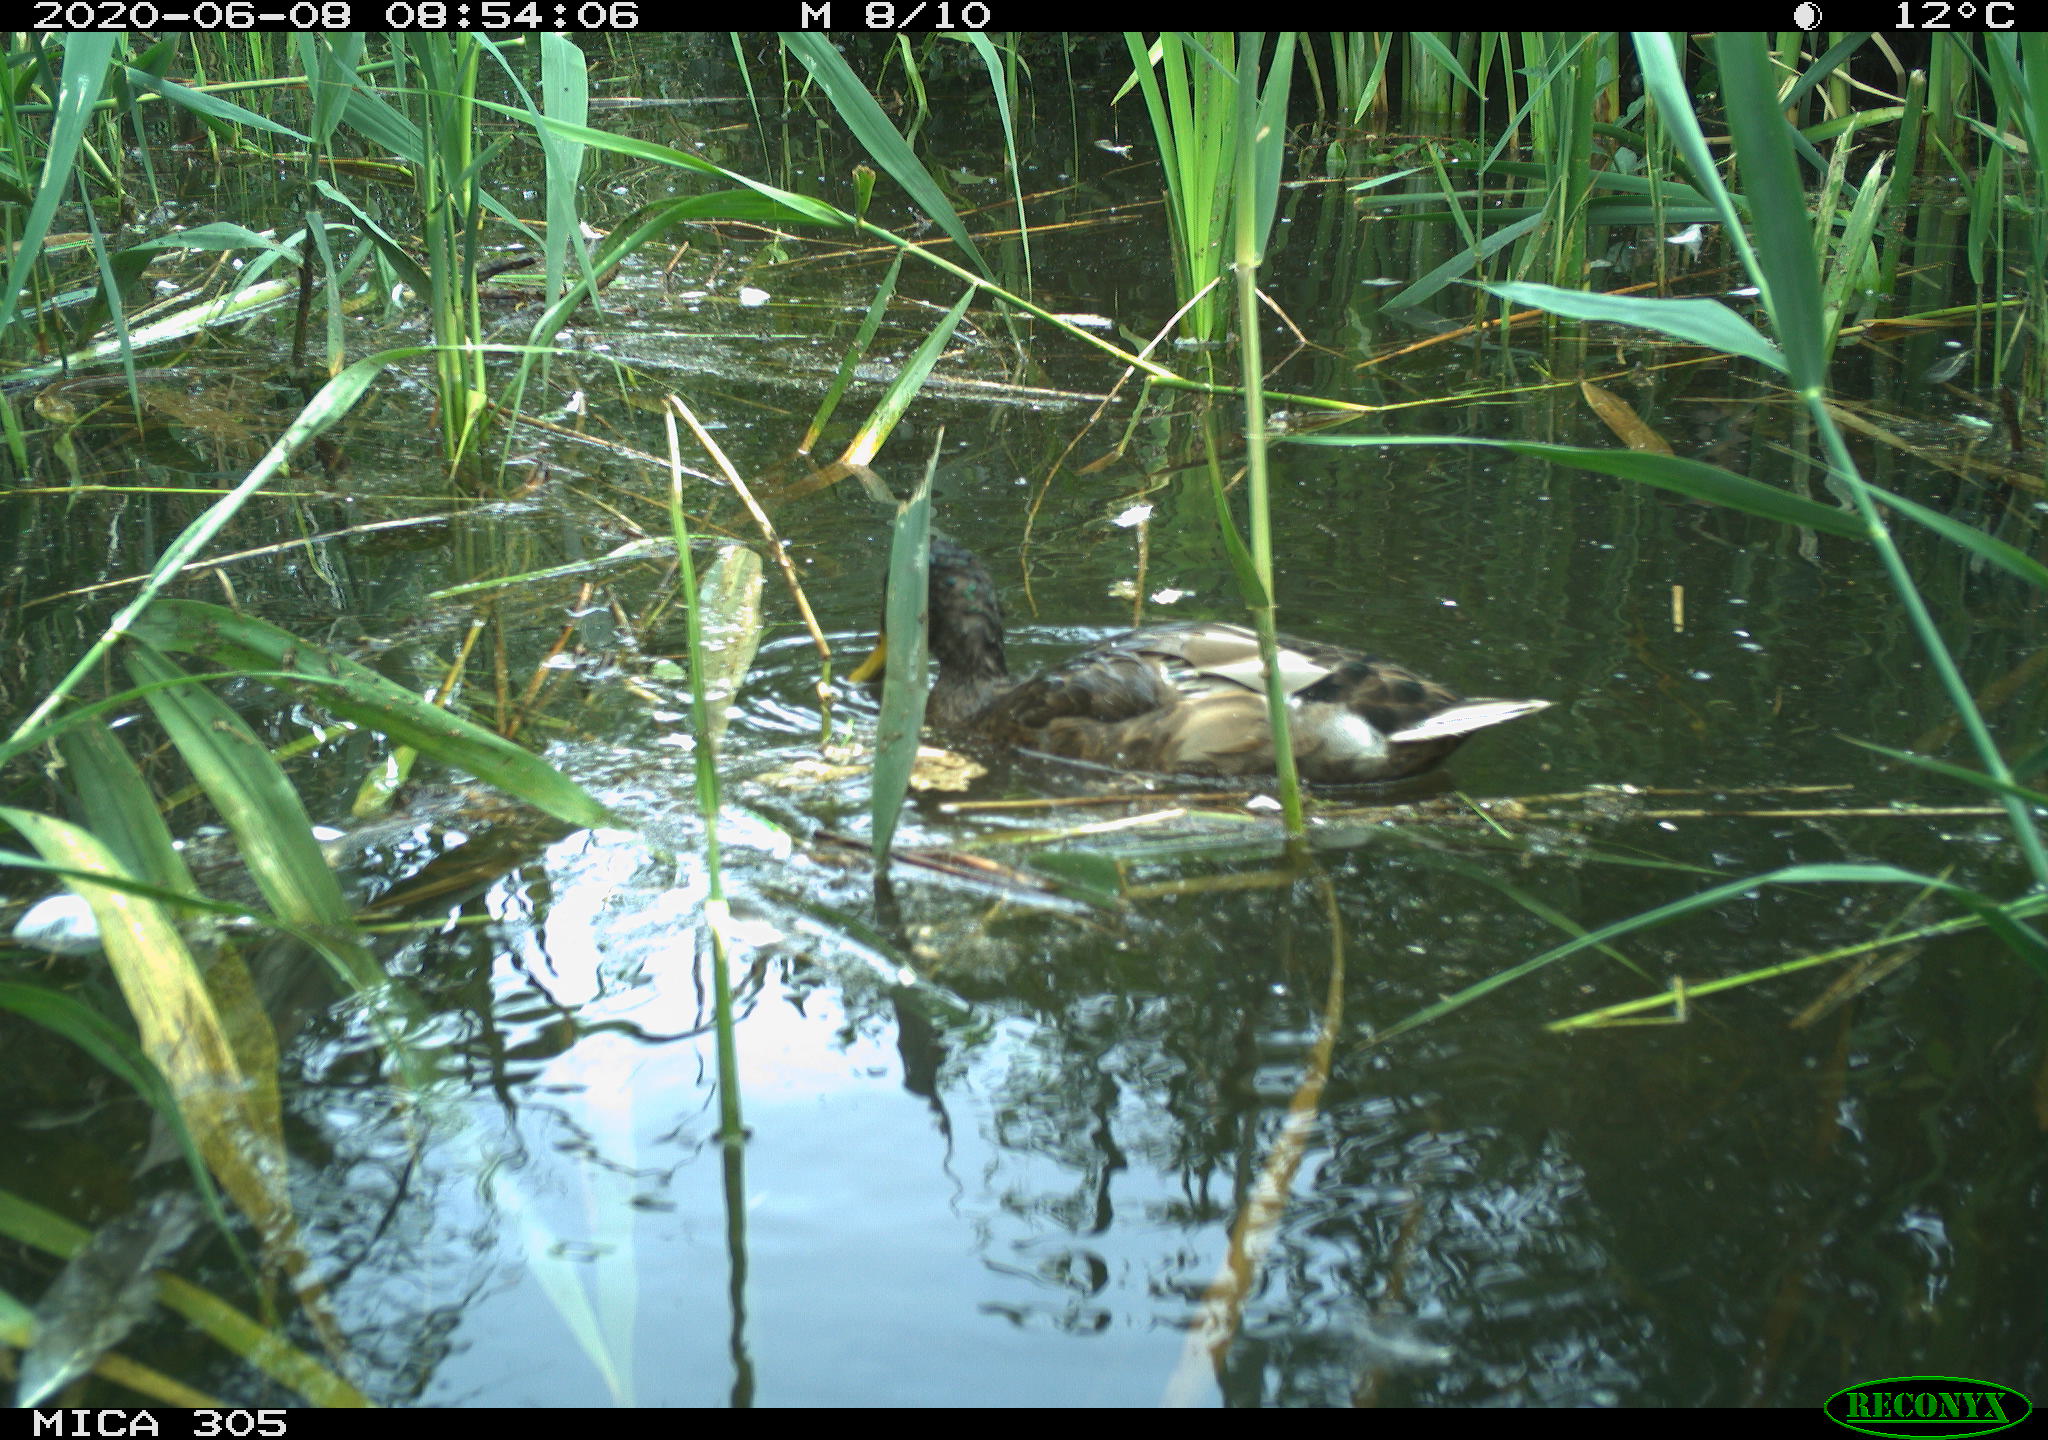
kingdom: Animalia
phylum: Chordata
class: Aves
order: Anseriformes
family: Anatidae
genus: Anas
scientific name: Anas platyrhynchos
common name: Mallard
